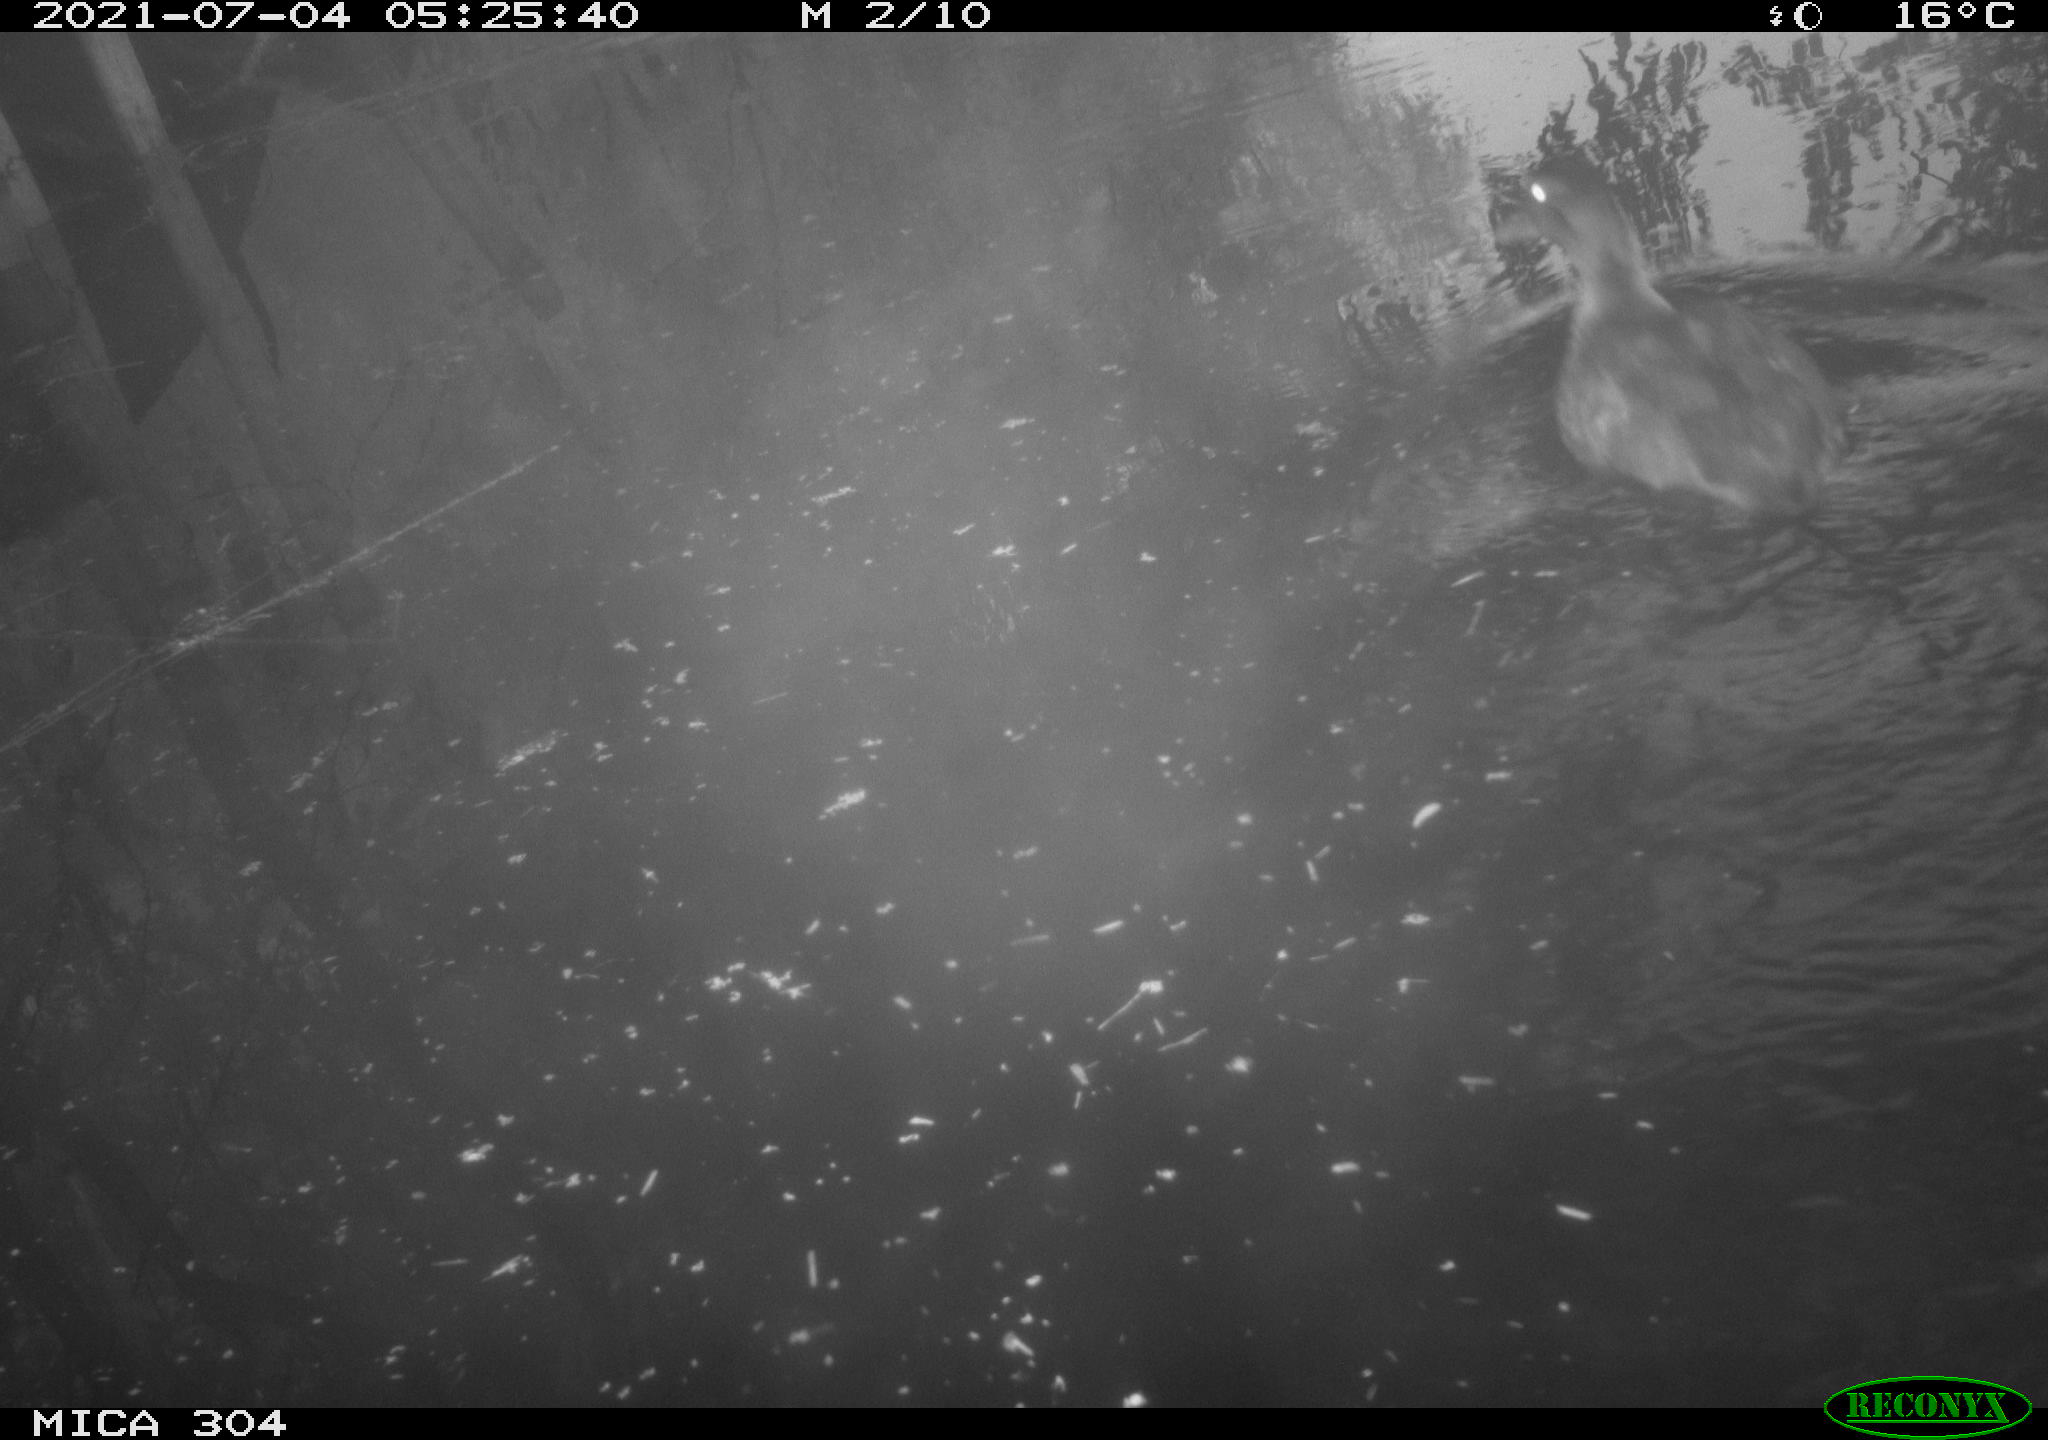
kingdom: Animalia
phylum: Chordata
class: Aves
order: Anseriformes
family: Anatidae
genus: Anas
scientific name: Anas platyrhynchos
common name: Mallard
